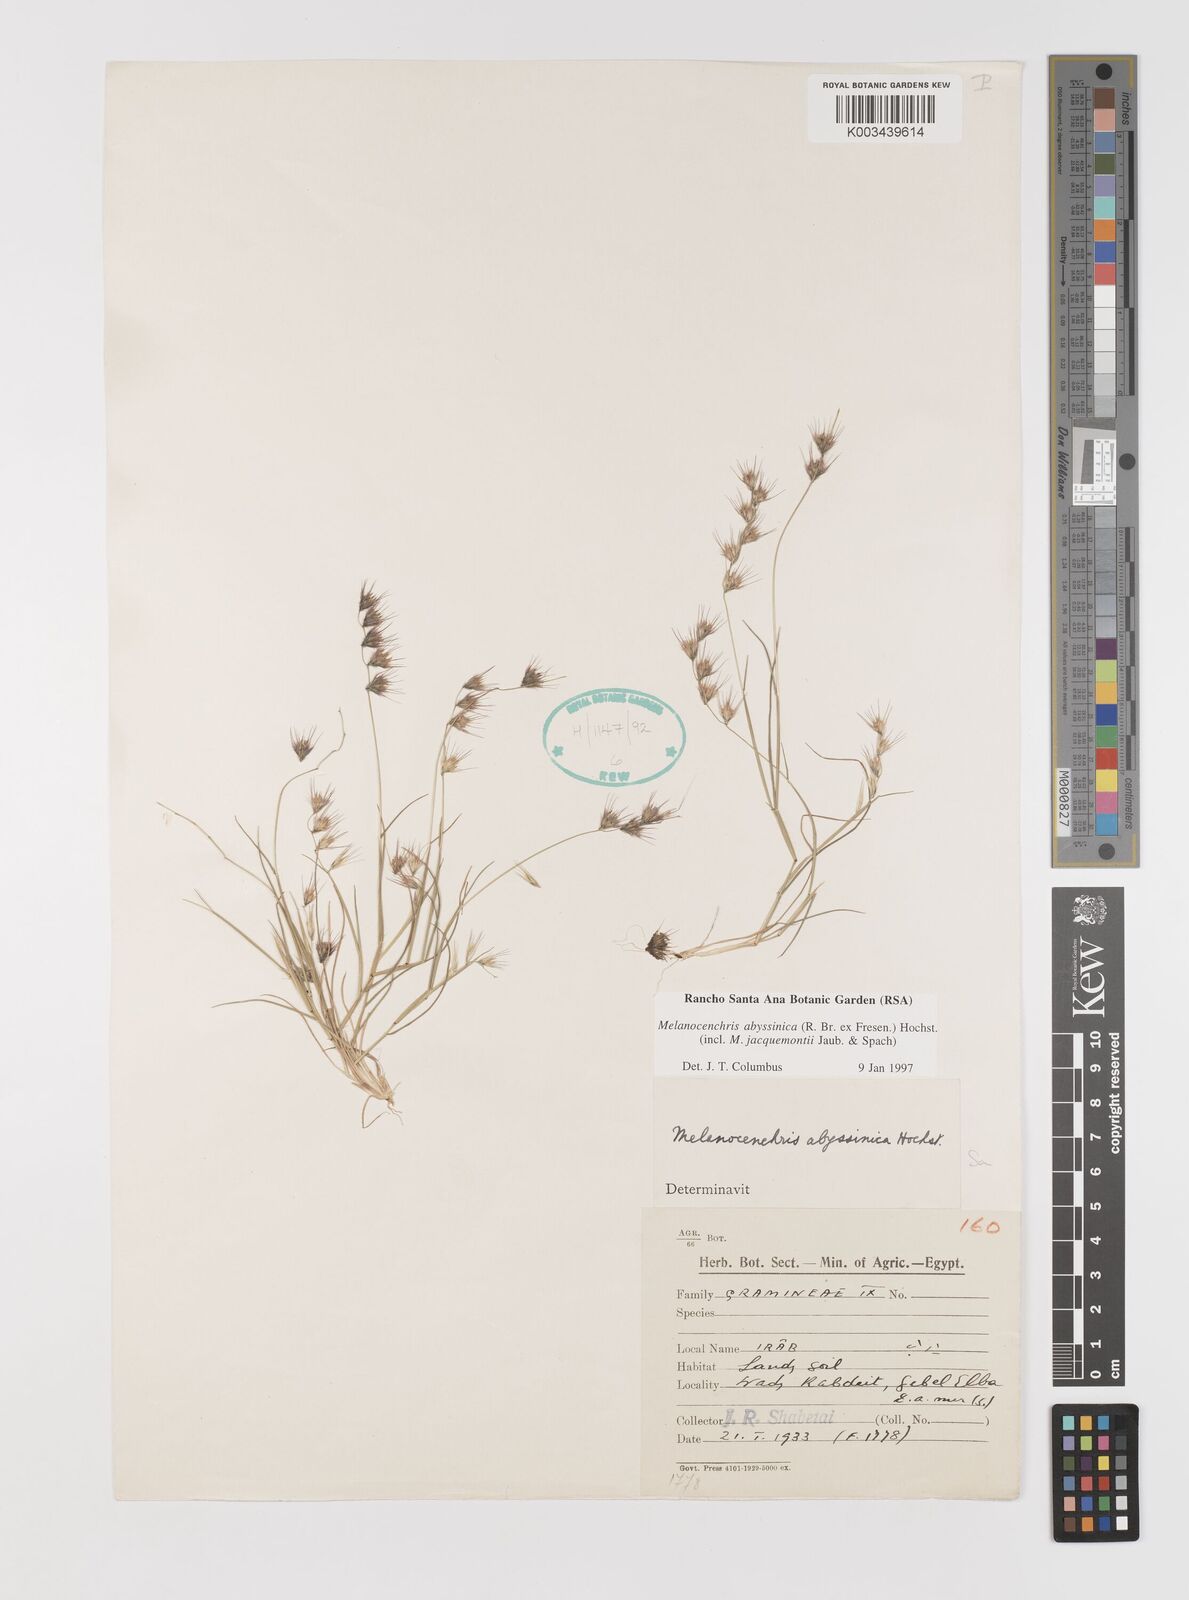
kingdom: Plantae
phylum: Tracheophyta
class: Liliopsida
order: Poales
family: Poaceae
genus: Melanocenchris
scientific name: Melanocenchris abyssinica
